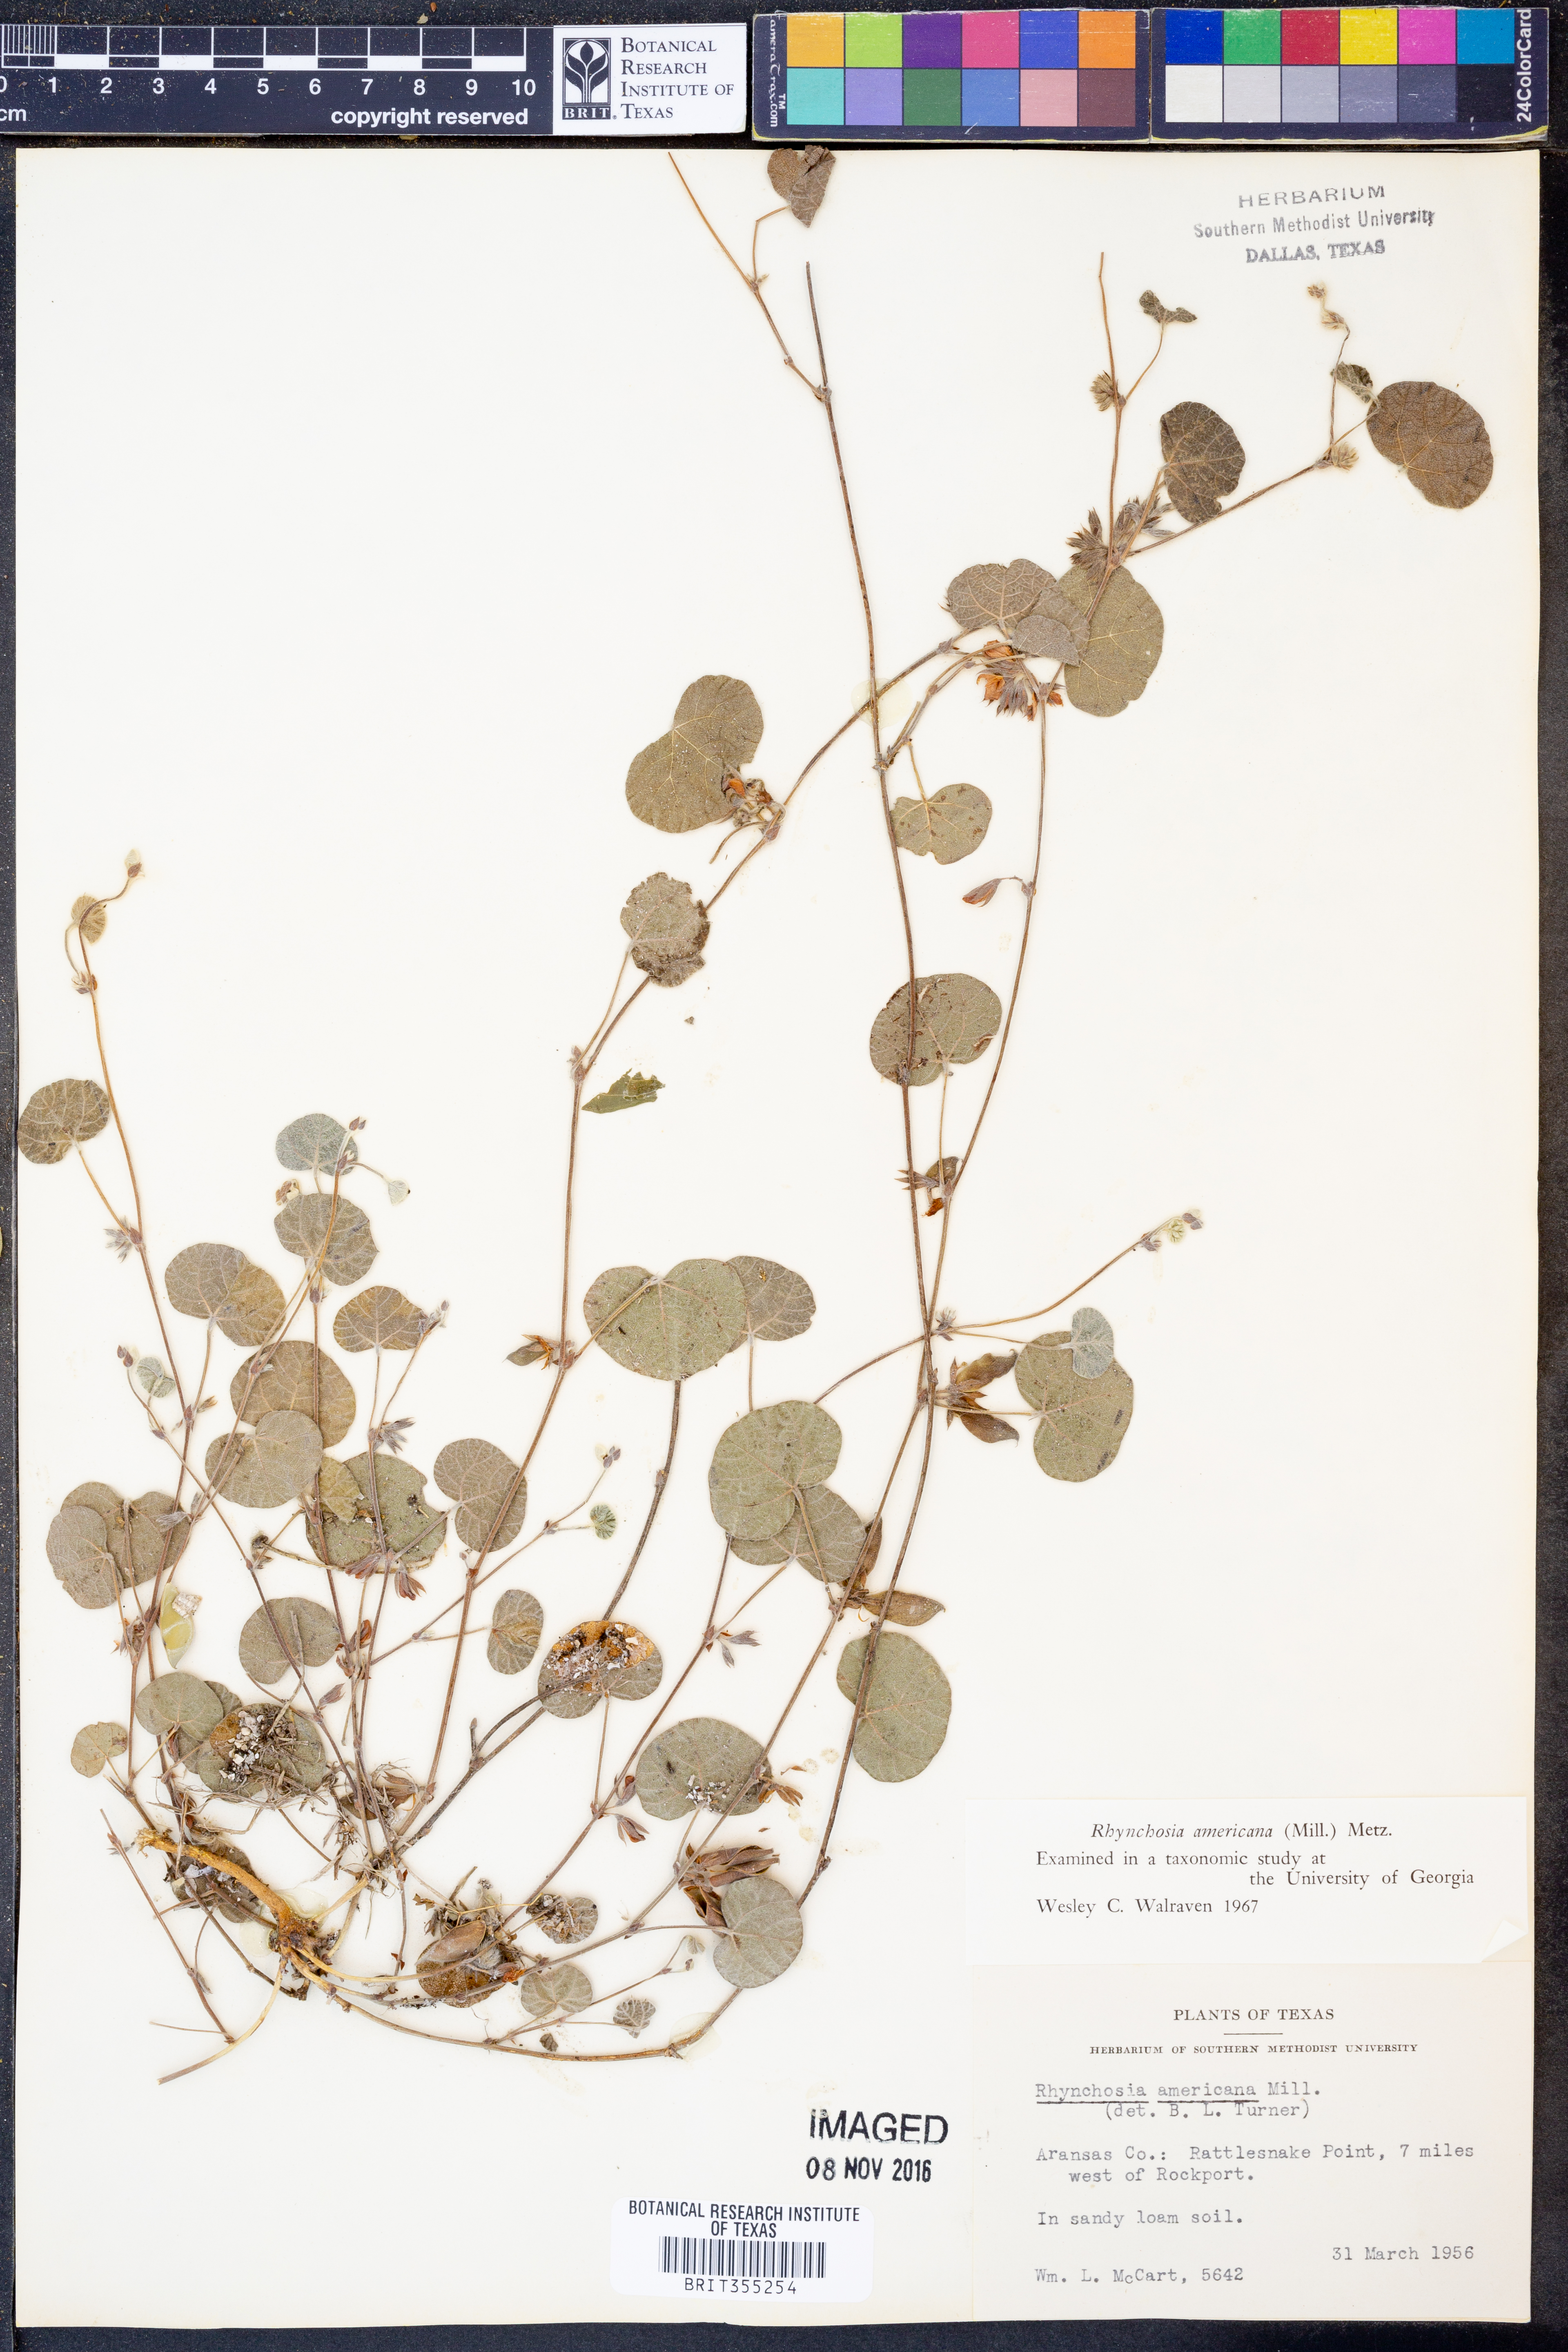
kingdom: Plantae
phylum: Tracheophyta
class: Magnoliopsida
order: Fabales
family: Fabaceae
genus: Rhynchosia
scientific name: Rhynchosia americana
